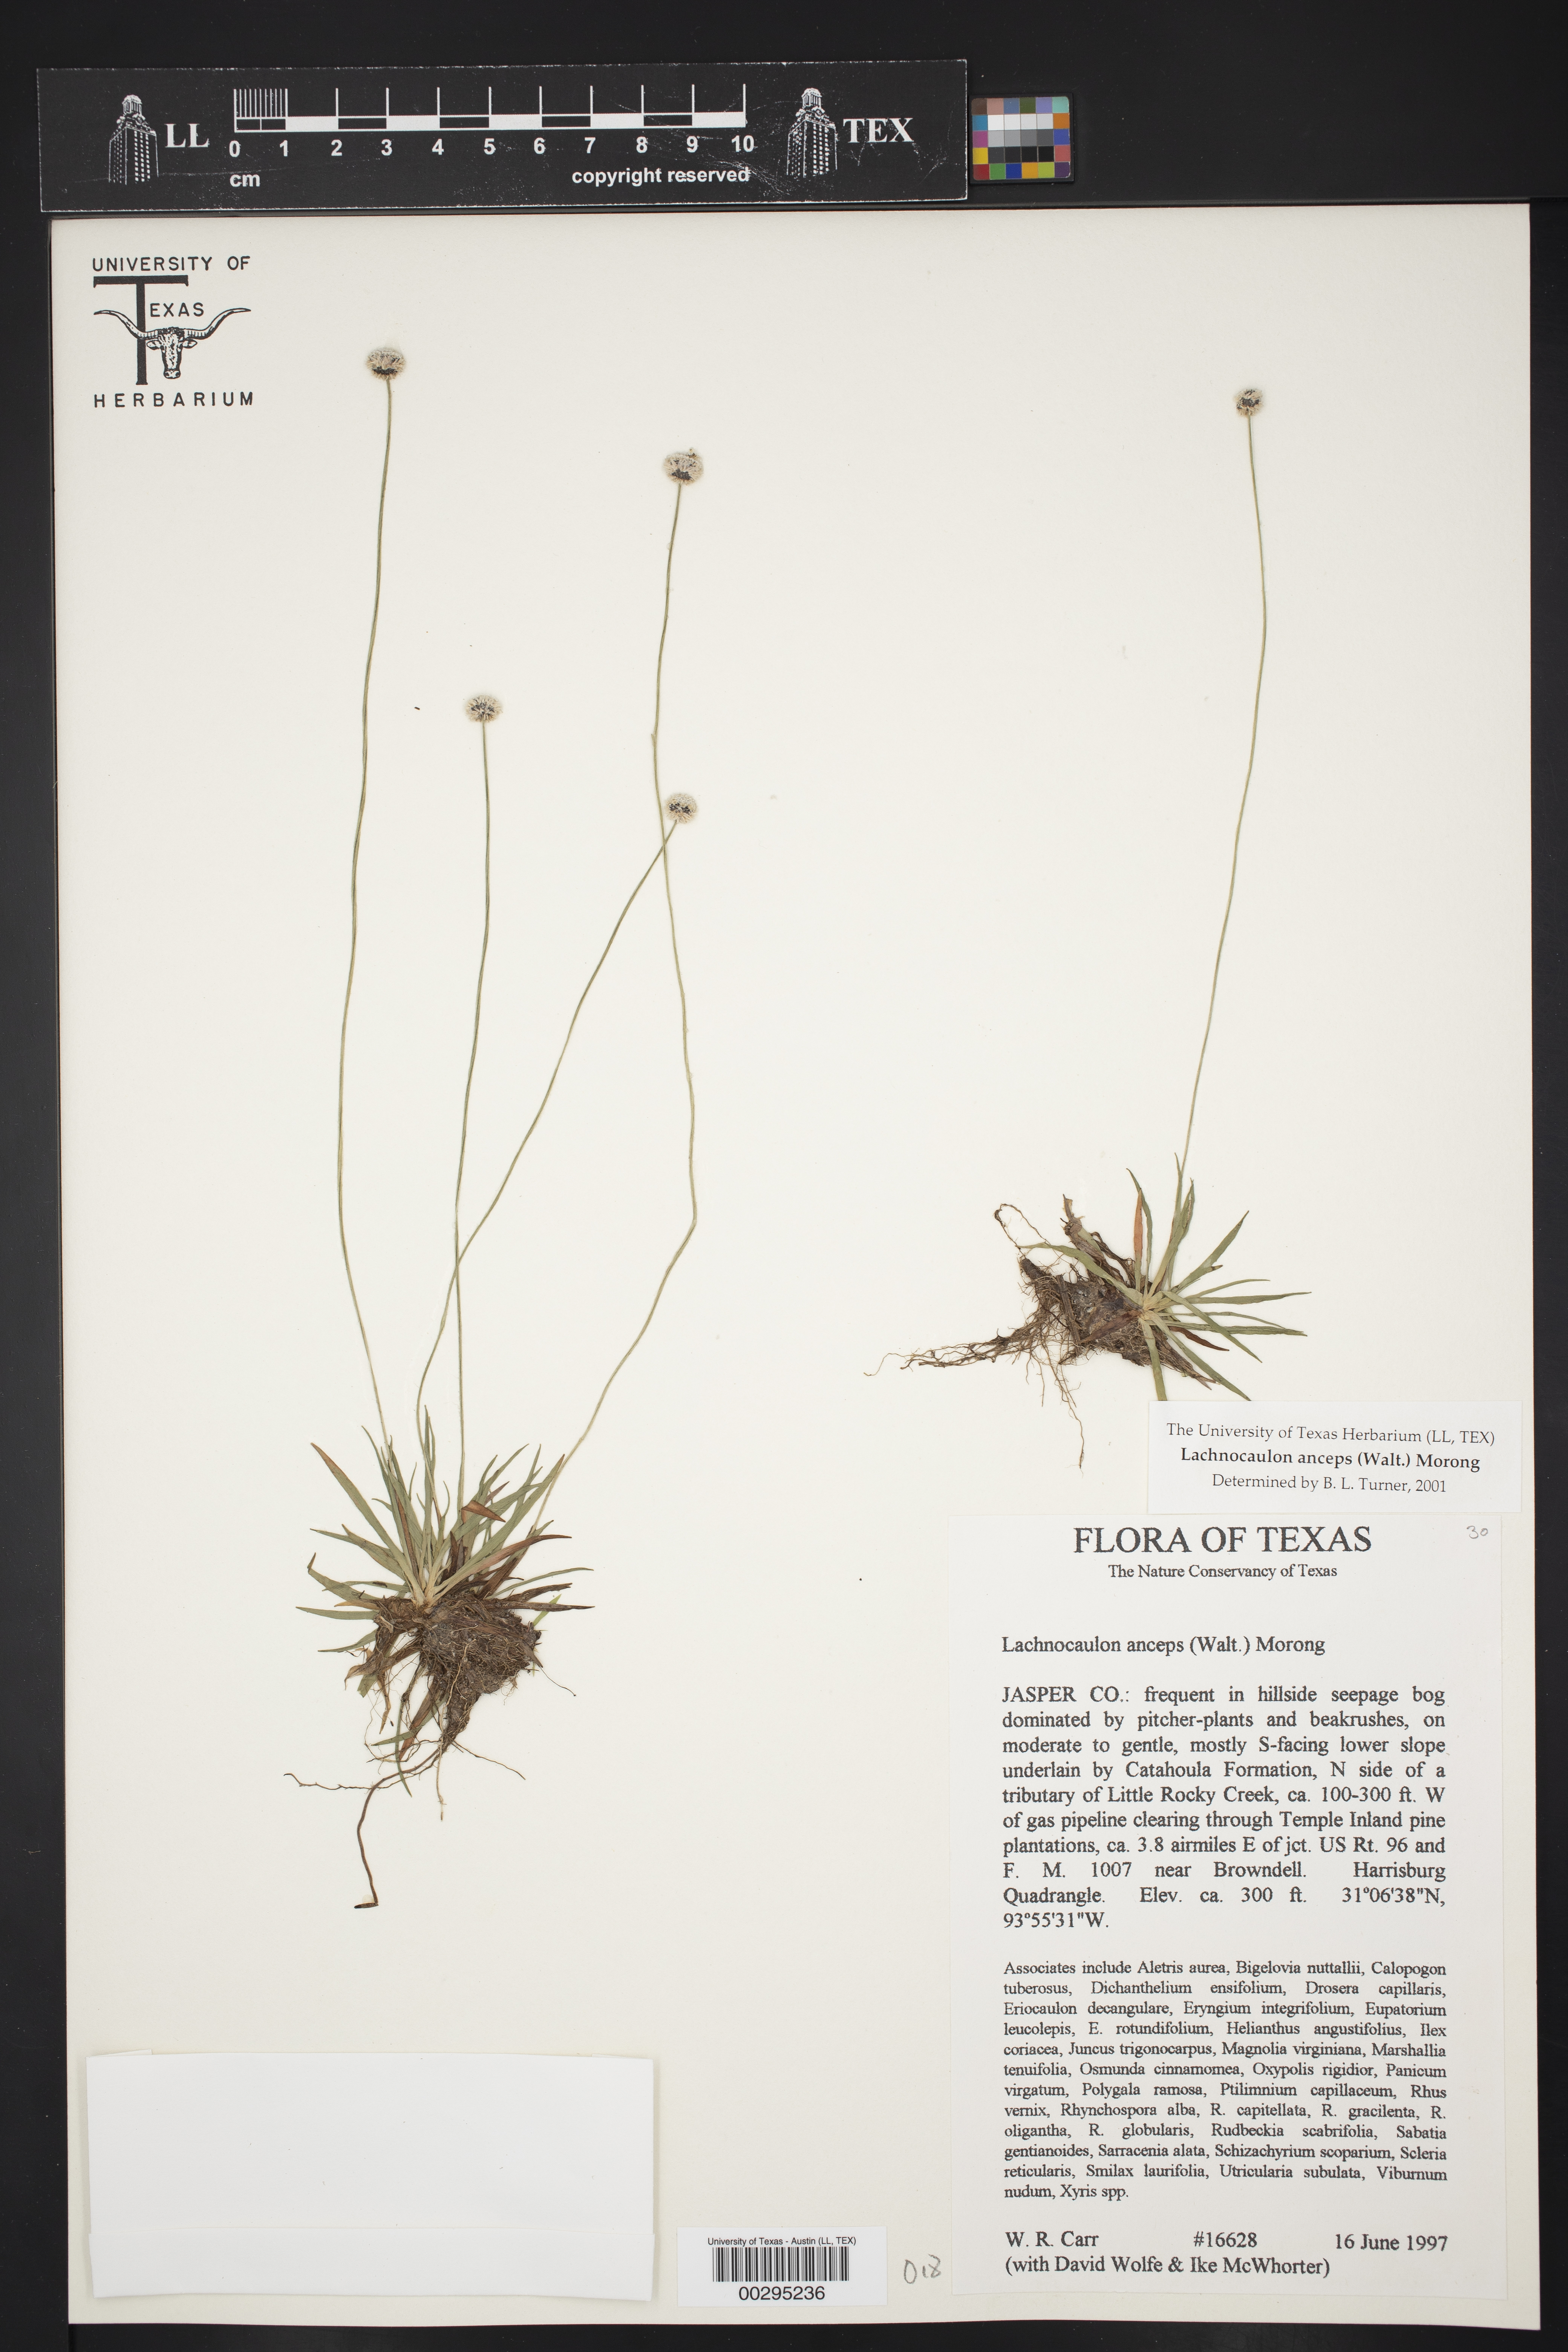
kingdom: Plantae
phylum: Tracheophyta
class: Liliopsida
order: Poales
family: Eriocaulaceae
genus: Paepalanthus
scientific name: Paepalanthus anceps
